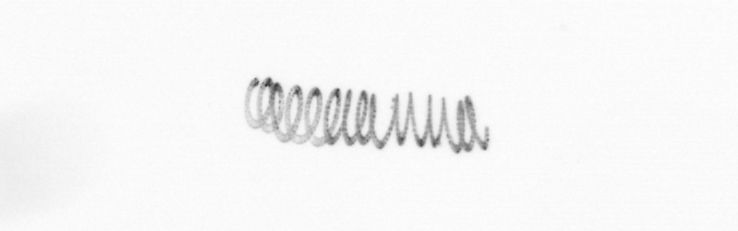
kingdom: Chromista
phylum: Ochrophyta
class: Bacillariophyceae
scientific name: Bacillariophyceae
